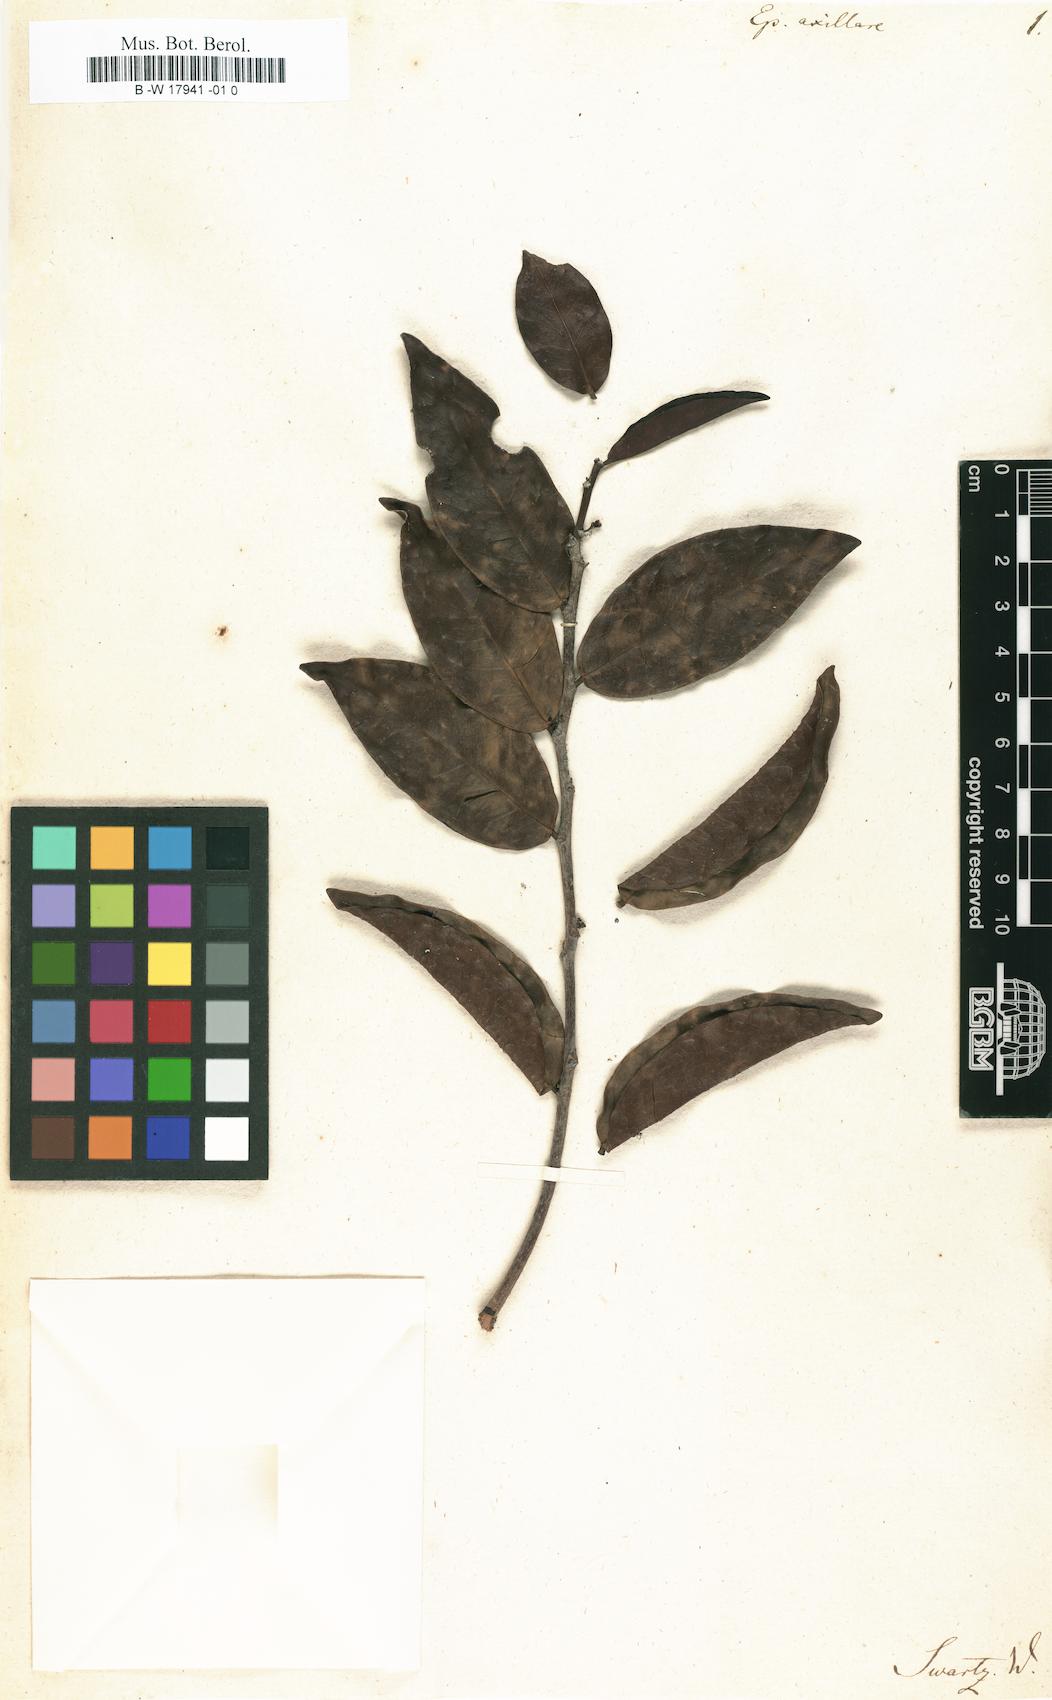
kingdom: Plantae
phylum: Tracheophyta
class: Magnoliopsida
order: Malpighiales
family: Phyllanthaceae
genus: Phyllanthus
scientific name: Phyllanthus axillaris
